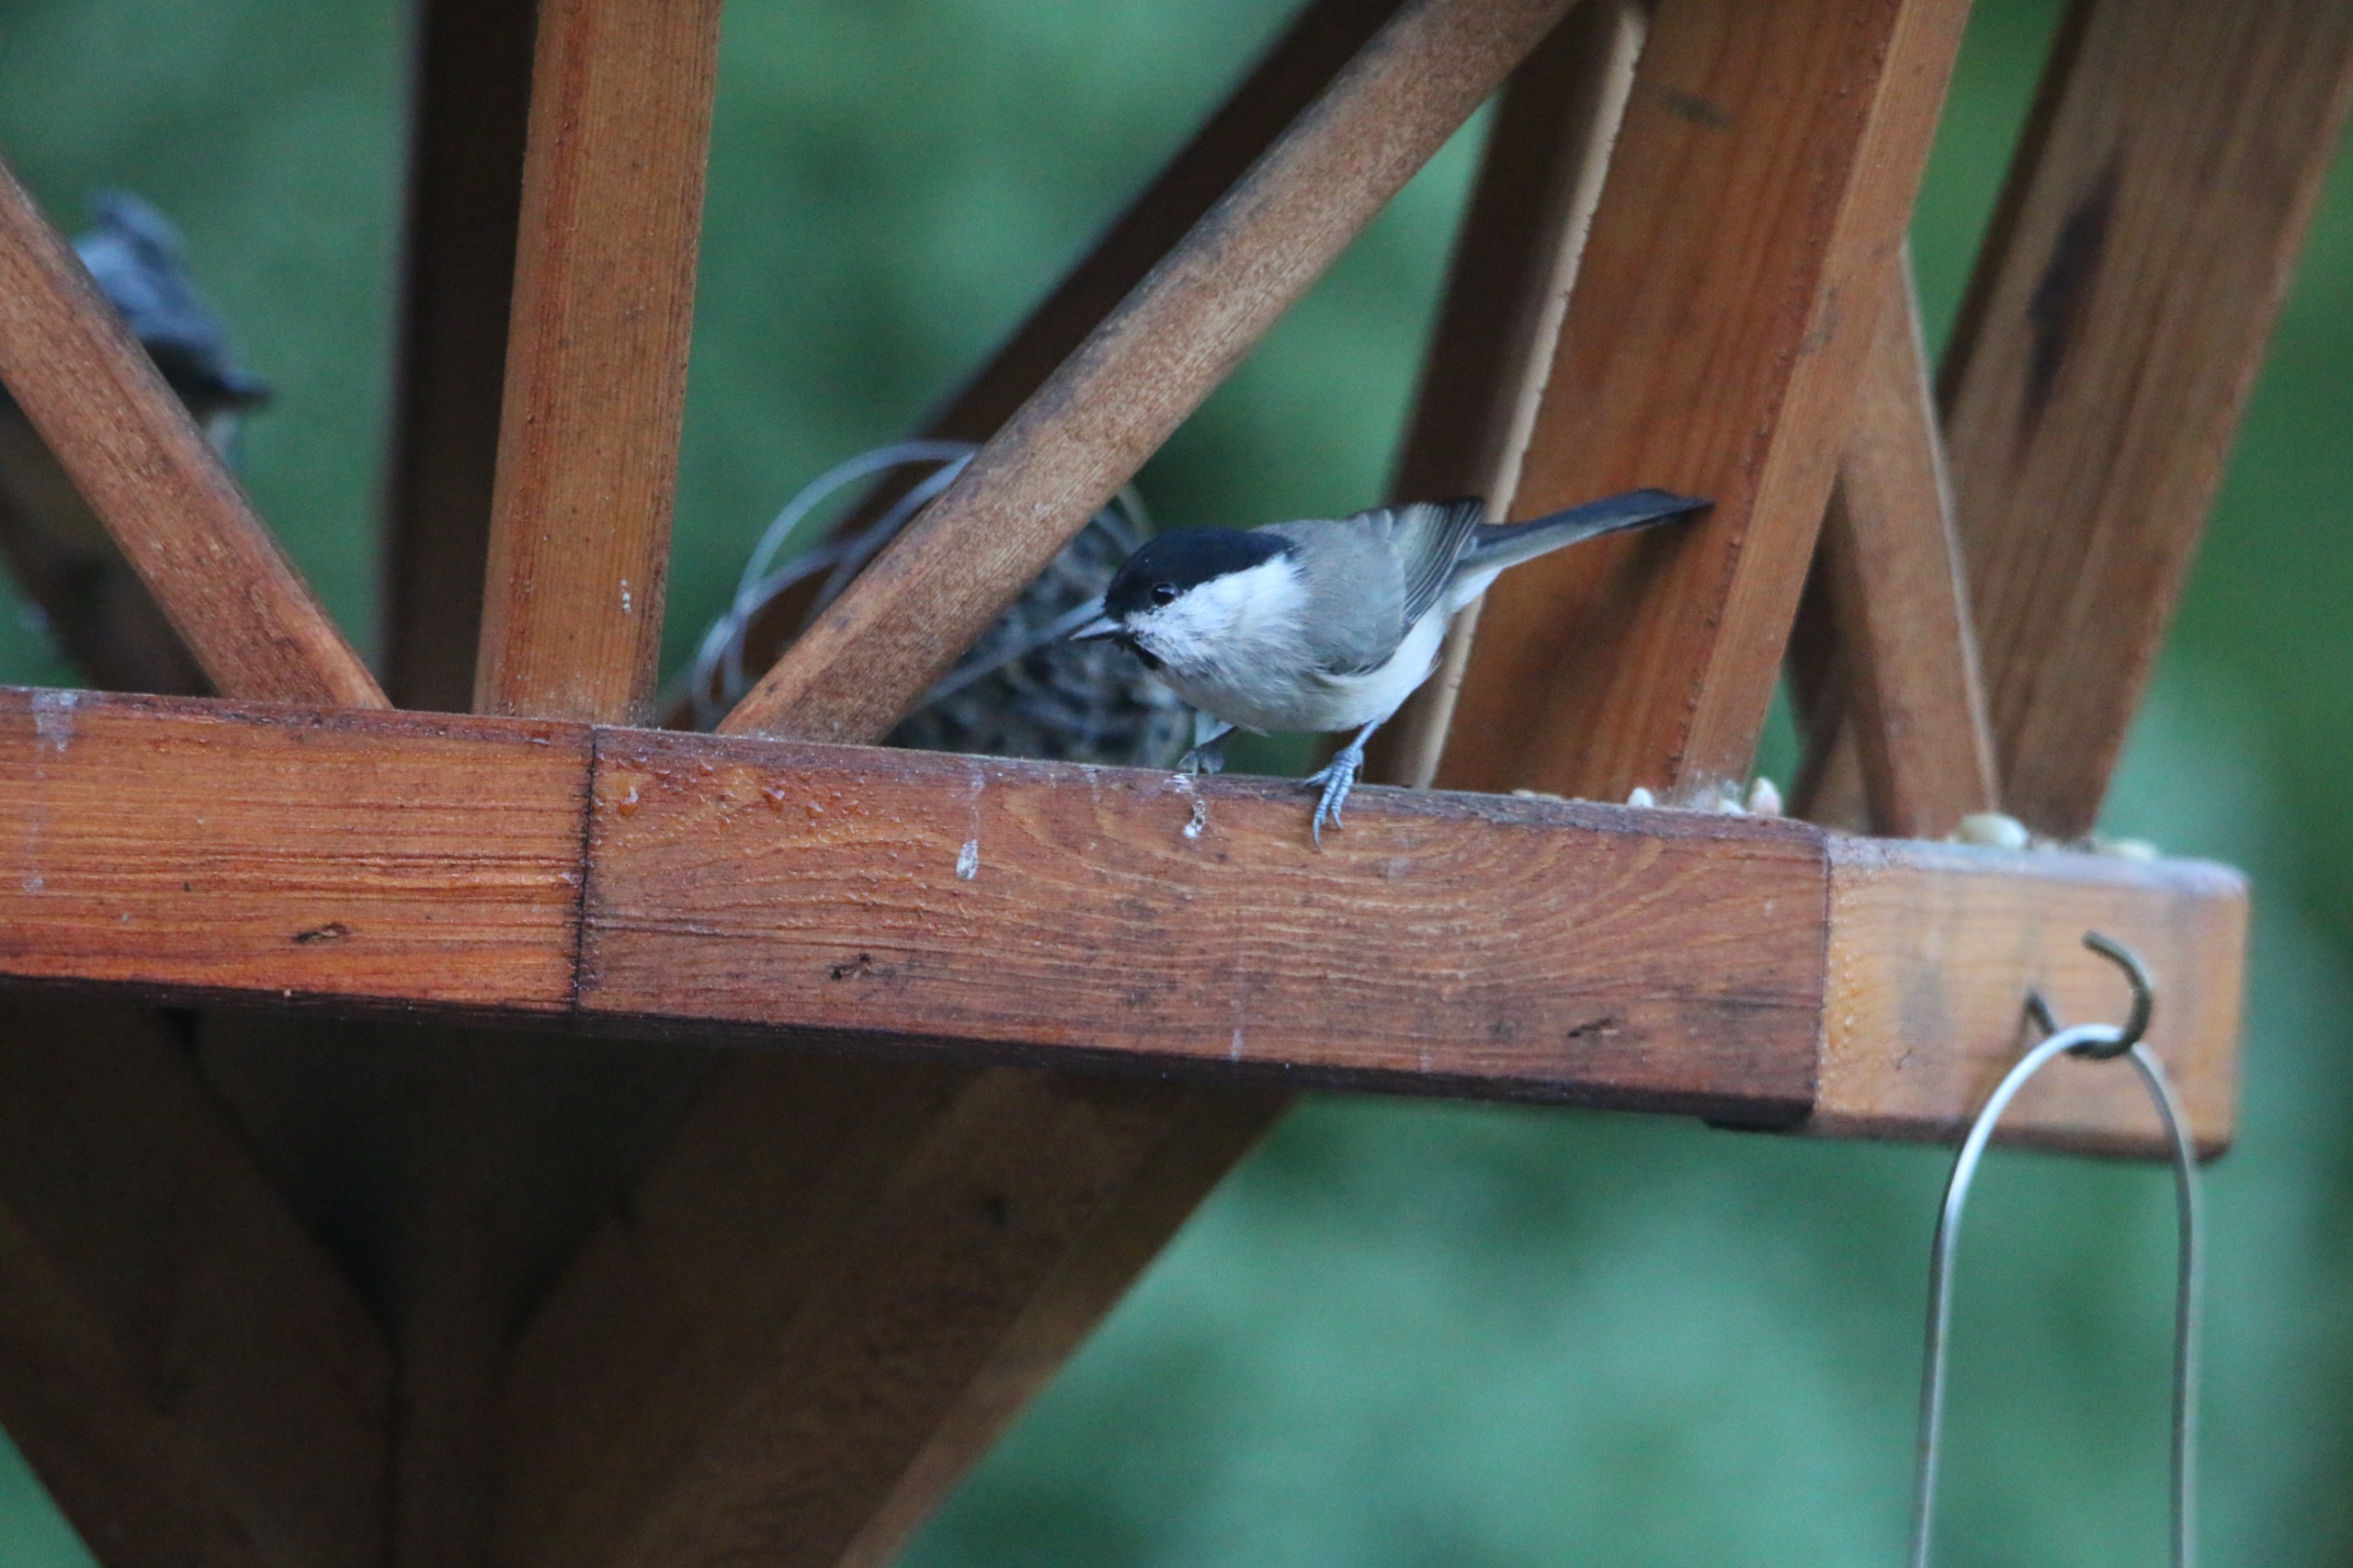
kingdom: Animalia
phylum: Chordata
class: Aves
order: Passeriformes
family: Paridae
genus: Poecile
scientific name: Poecile palustris
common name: Sumpmejse
